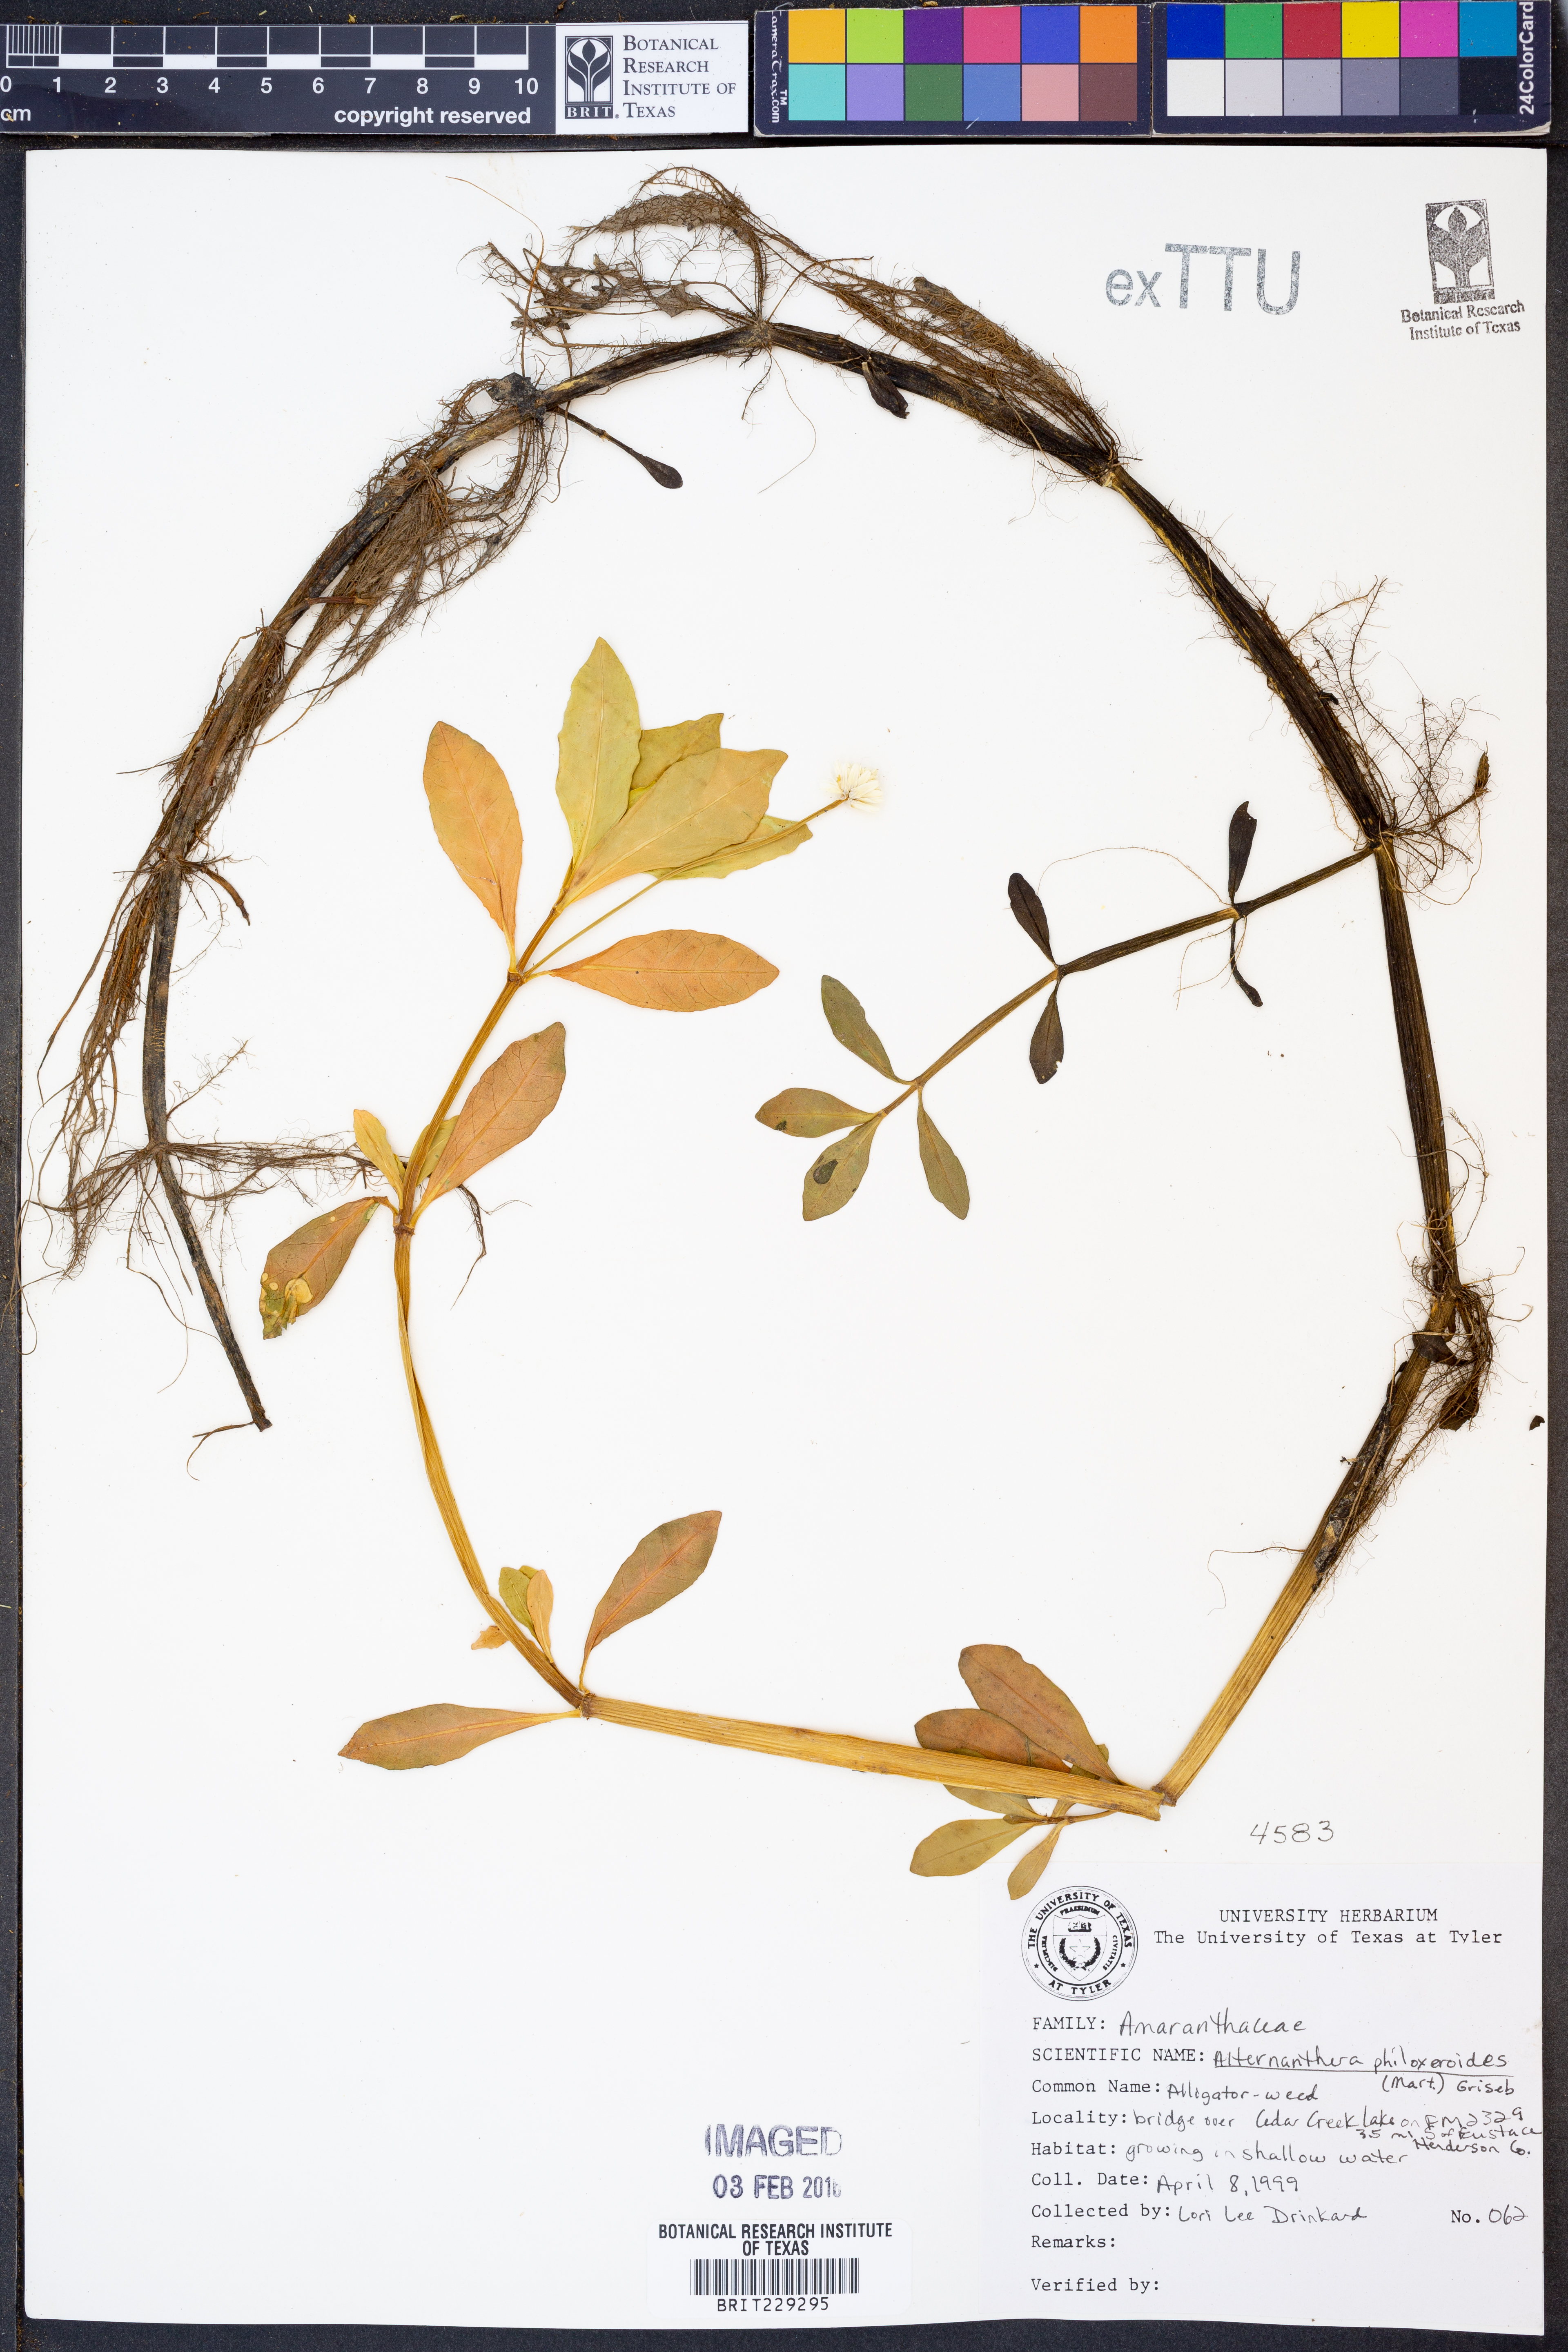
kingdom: Plantae
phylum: Tracheophyta
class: Magnoliopsida
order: Caryophyllales
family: Amaranthaceae
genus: Alternanthera
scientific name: Alternanthera philoxeroides
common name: Alligatorweed
